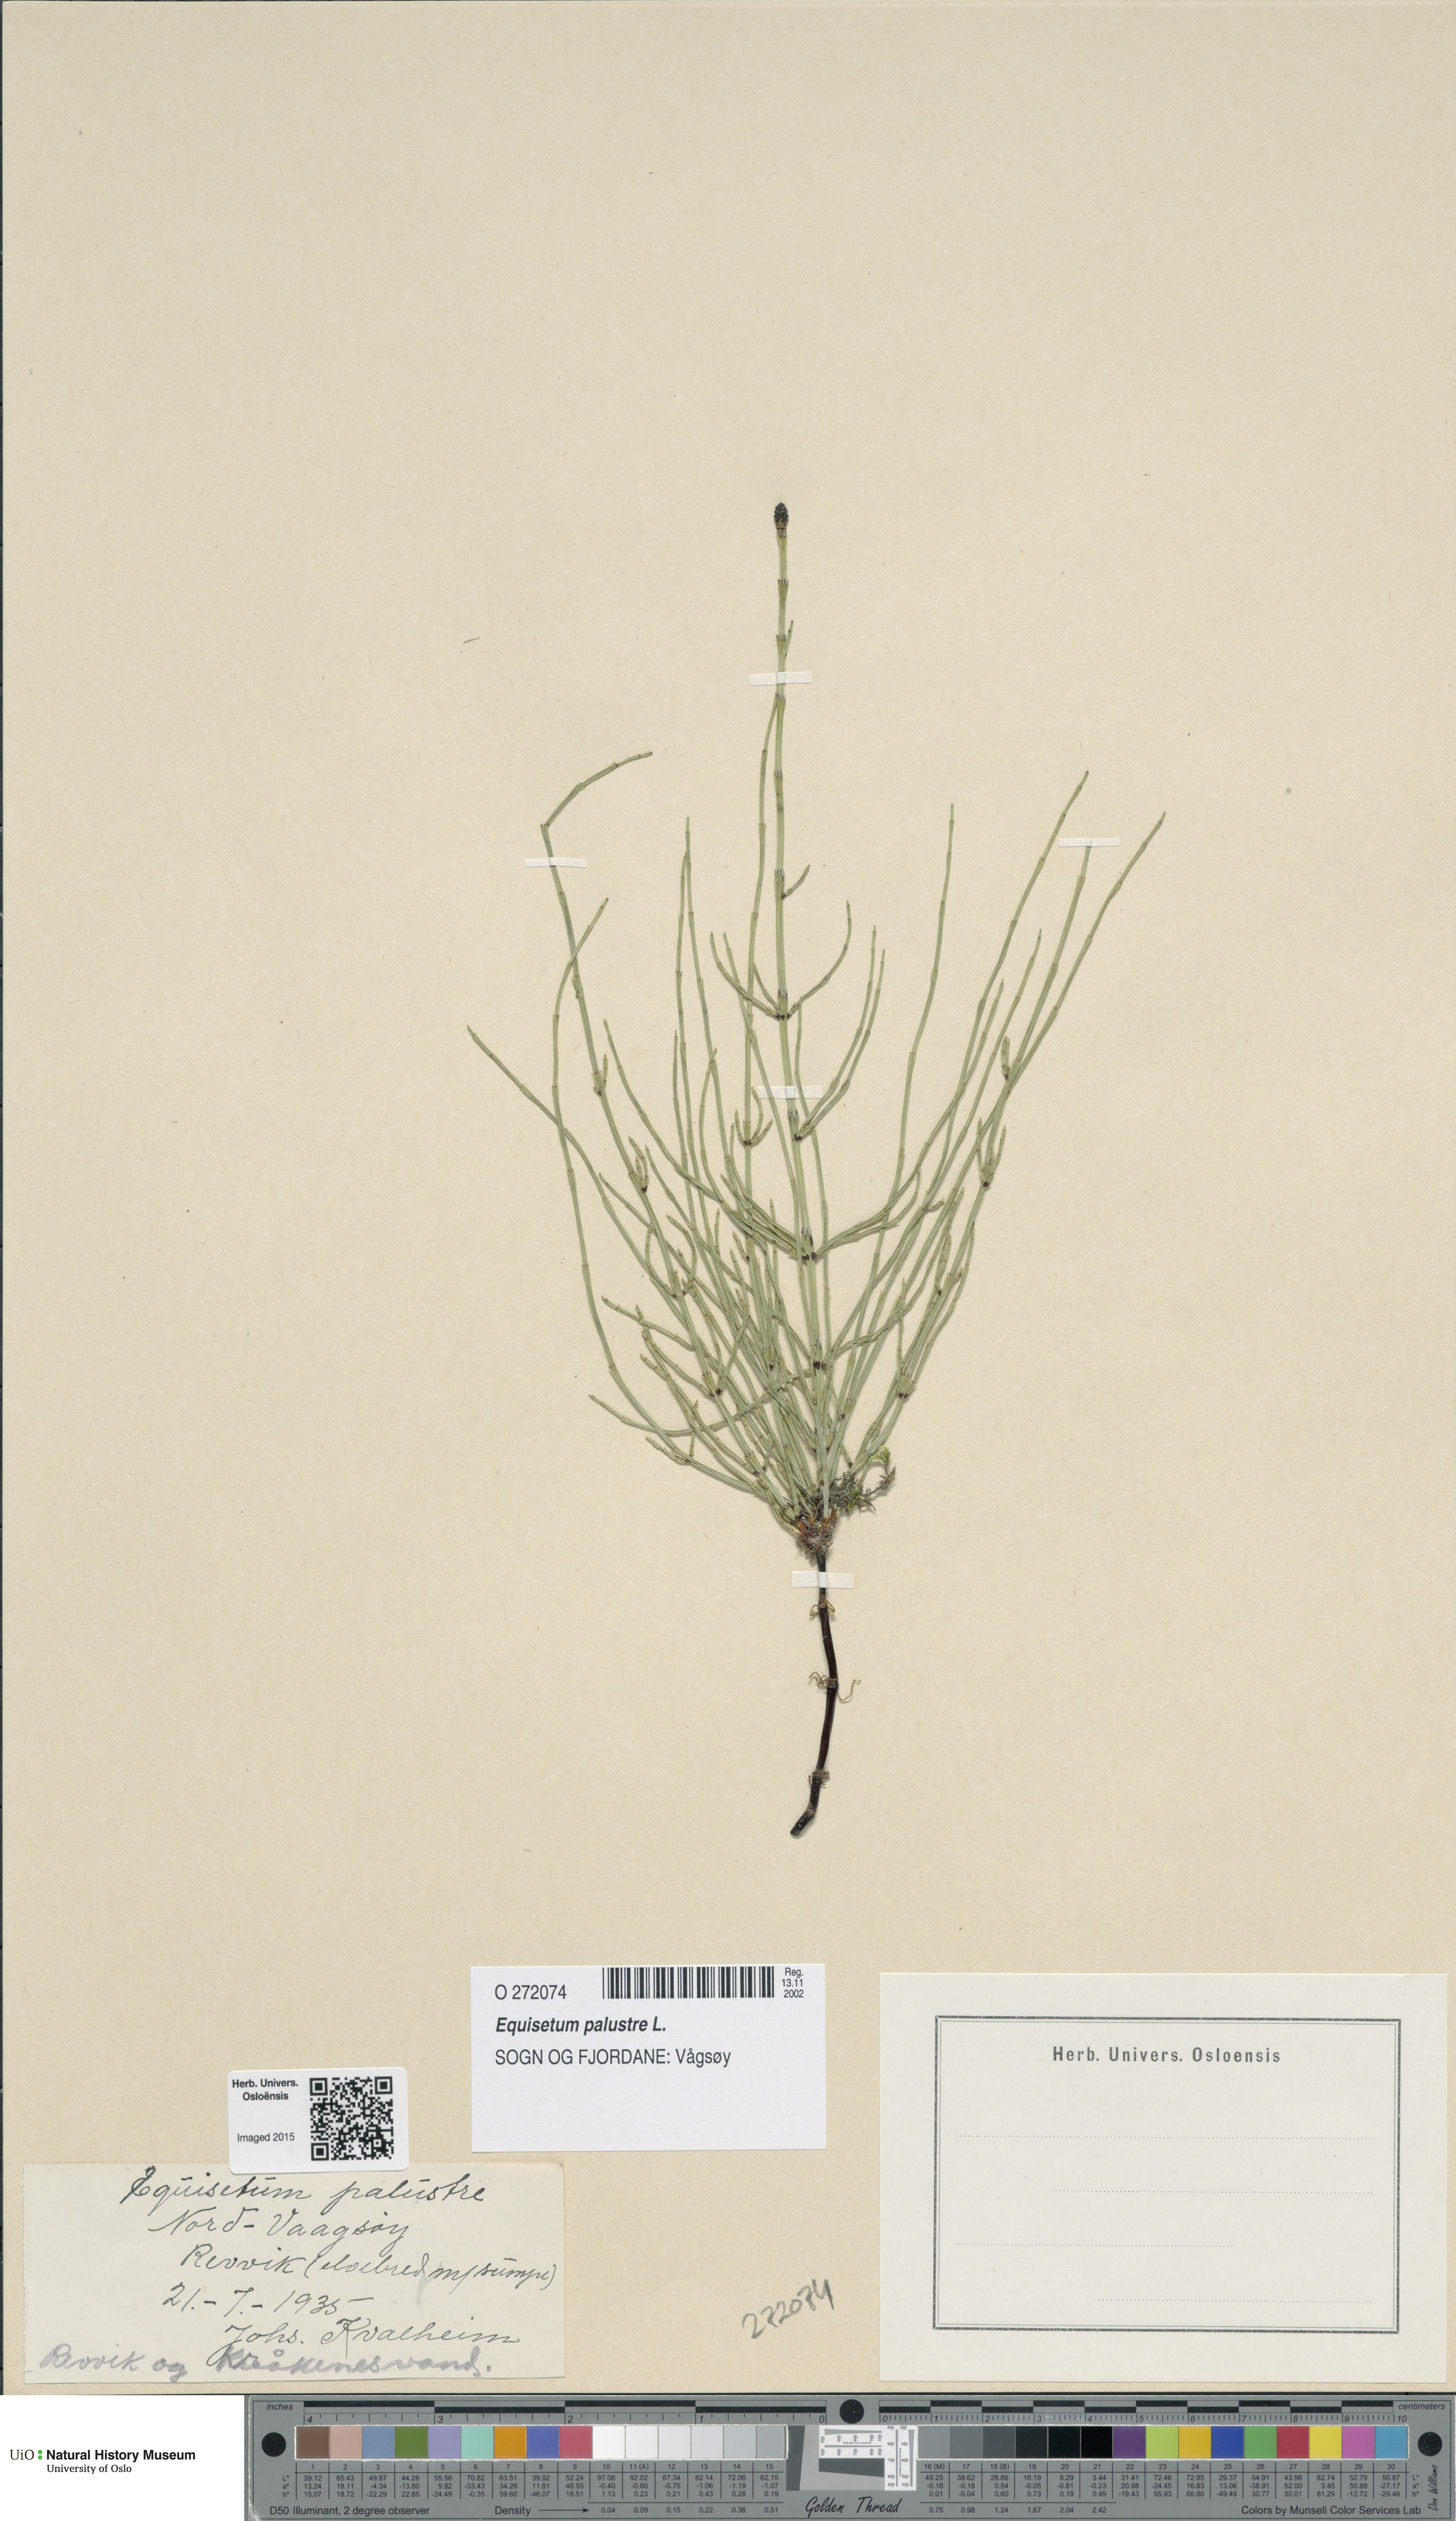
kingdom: Plantae
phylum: Tracheophyta
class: Polypodiopsida
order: Equisetales
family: Equisetaceae
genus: Equisetum
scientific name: Equisetum palustre
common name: Marsh horsetail
